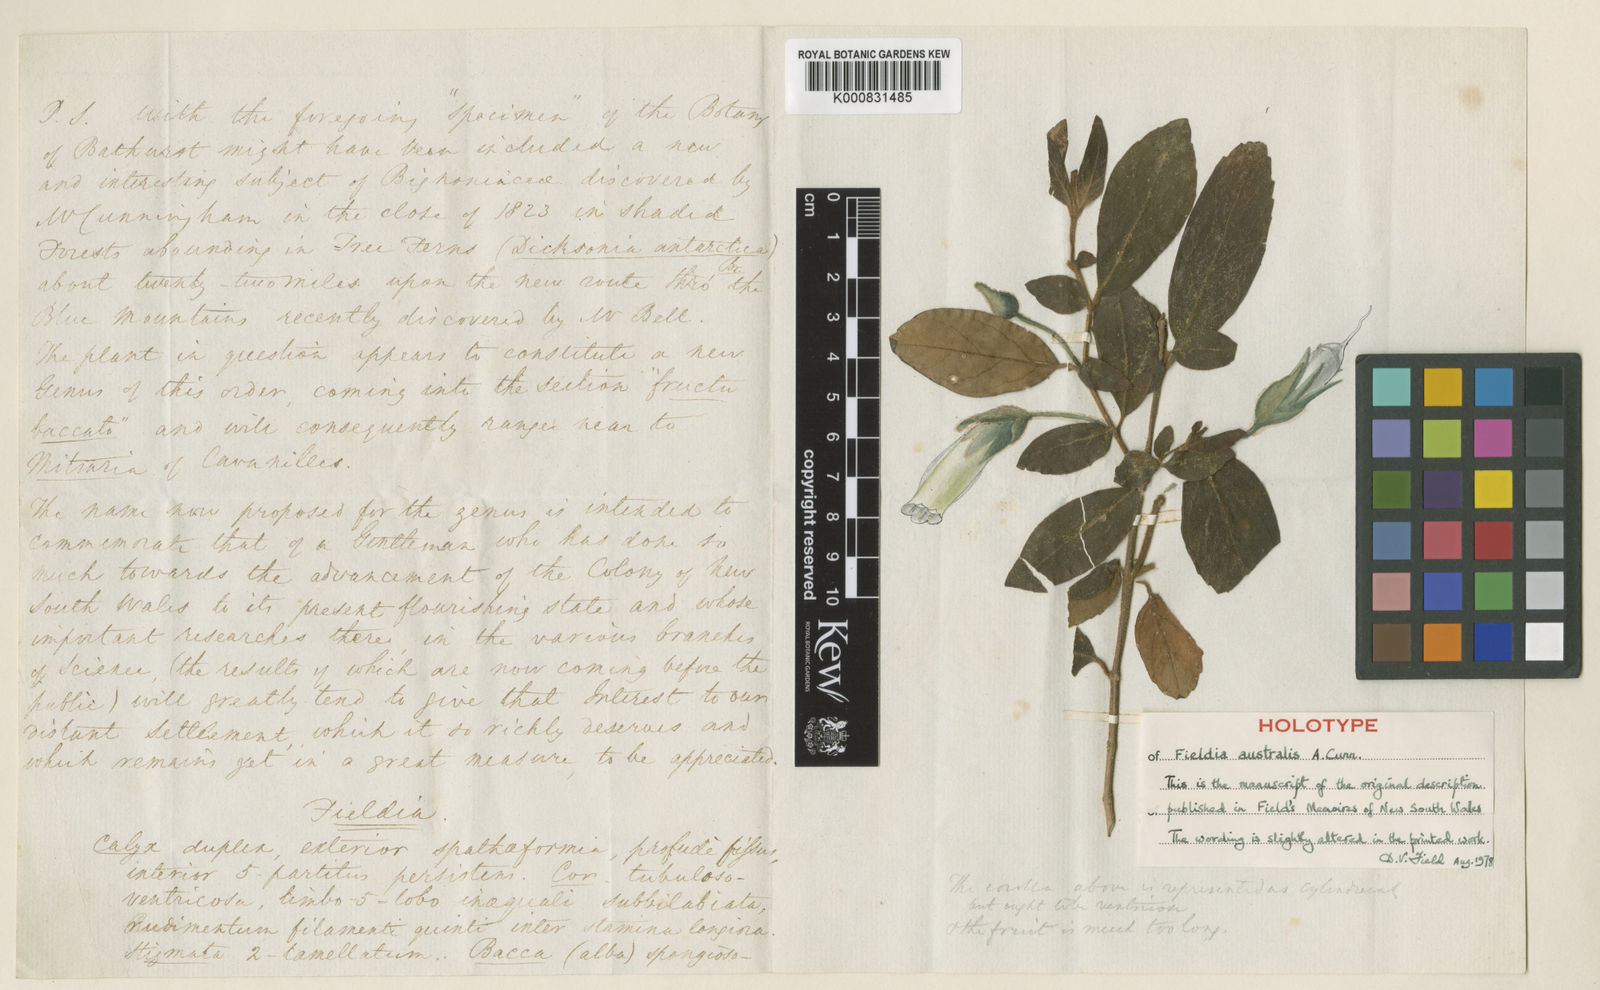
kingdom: Plantae
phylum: Tracheophyta
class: Magnoliopsida
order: Lamiales
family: Gesneriaceae
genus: Fieldia
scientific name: Fieldia australis
